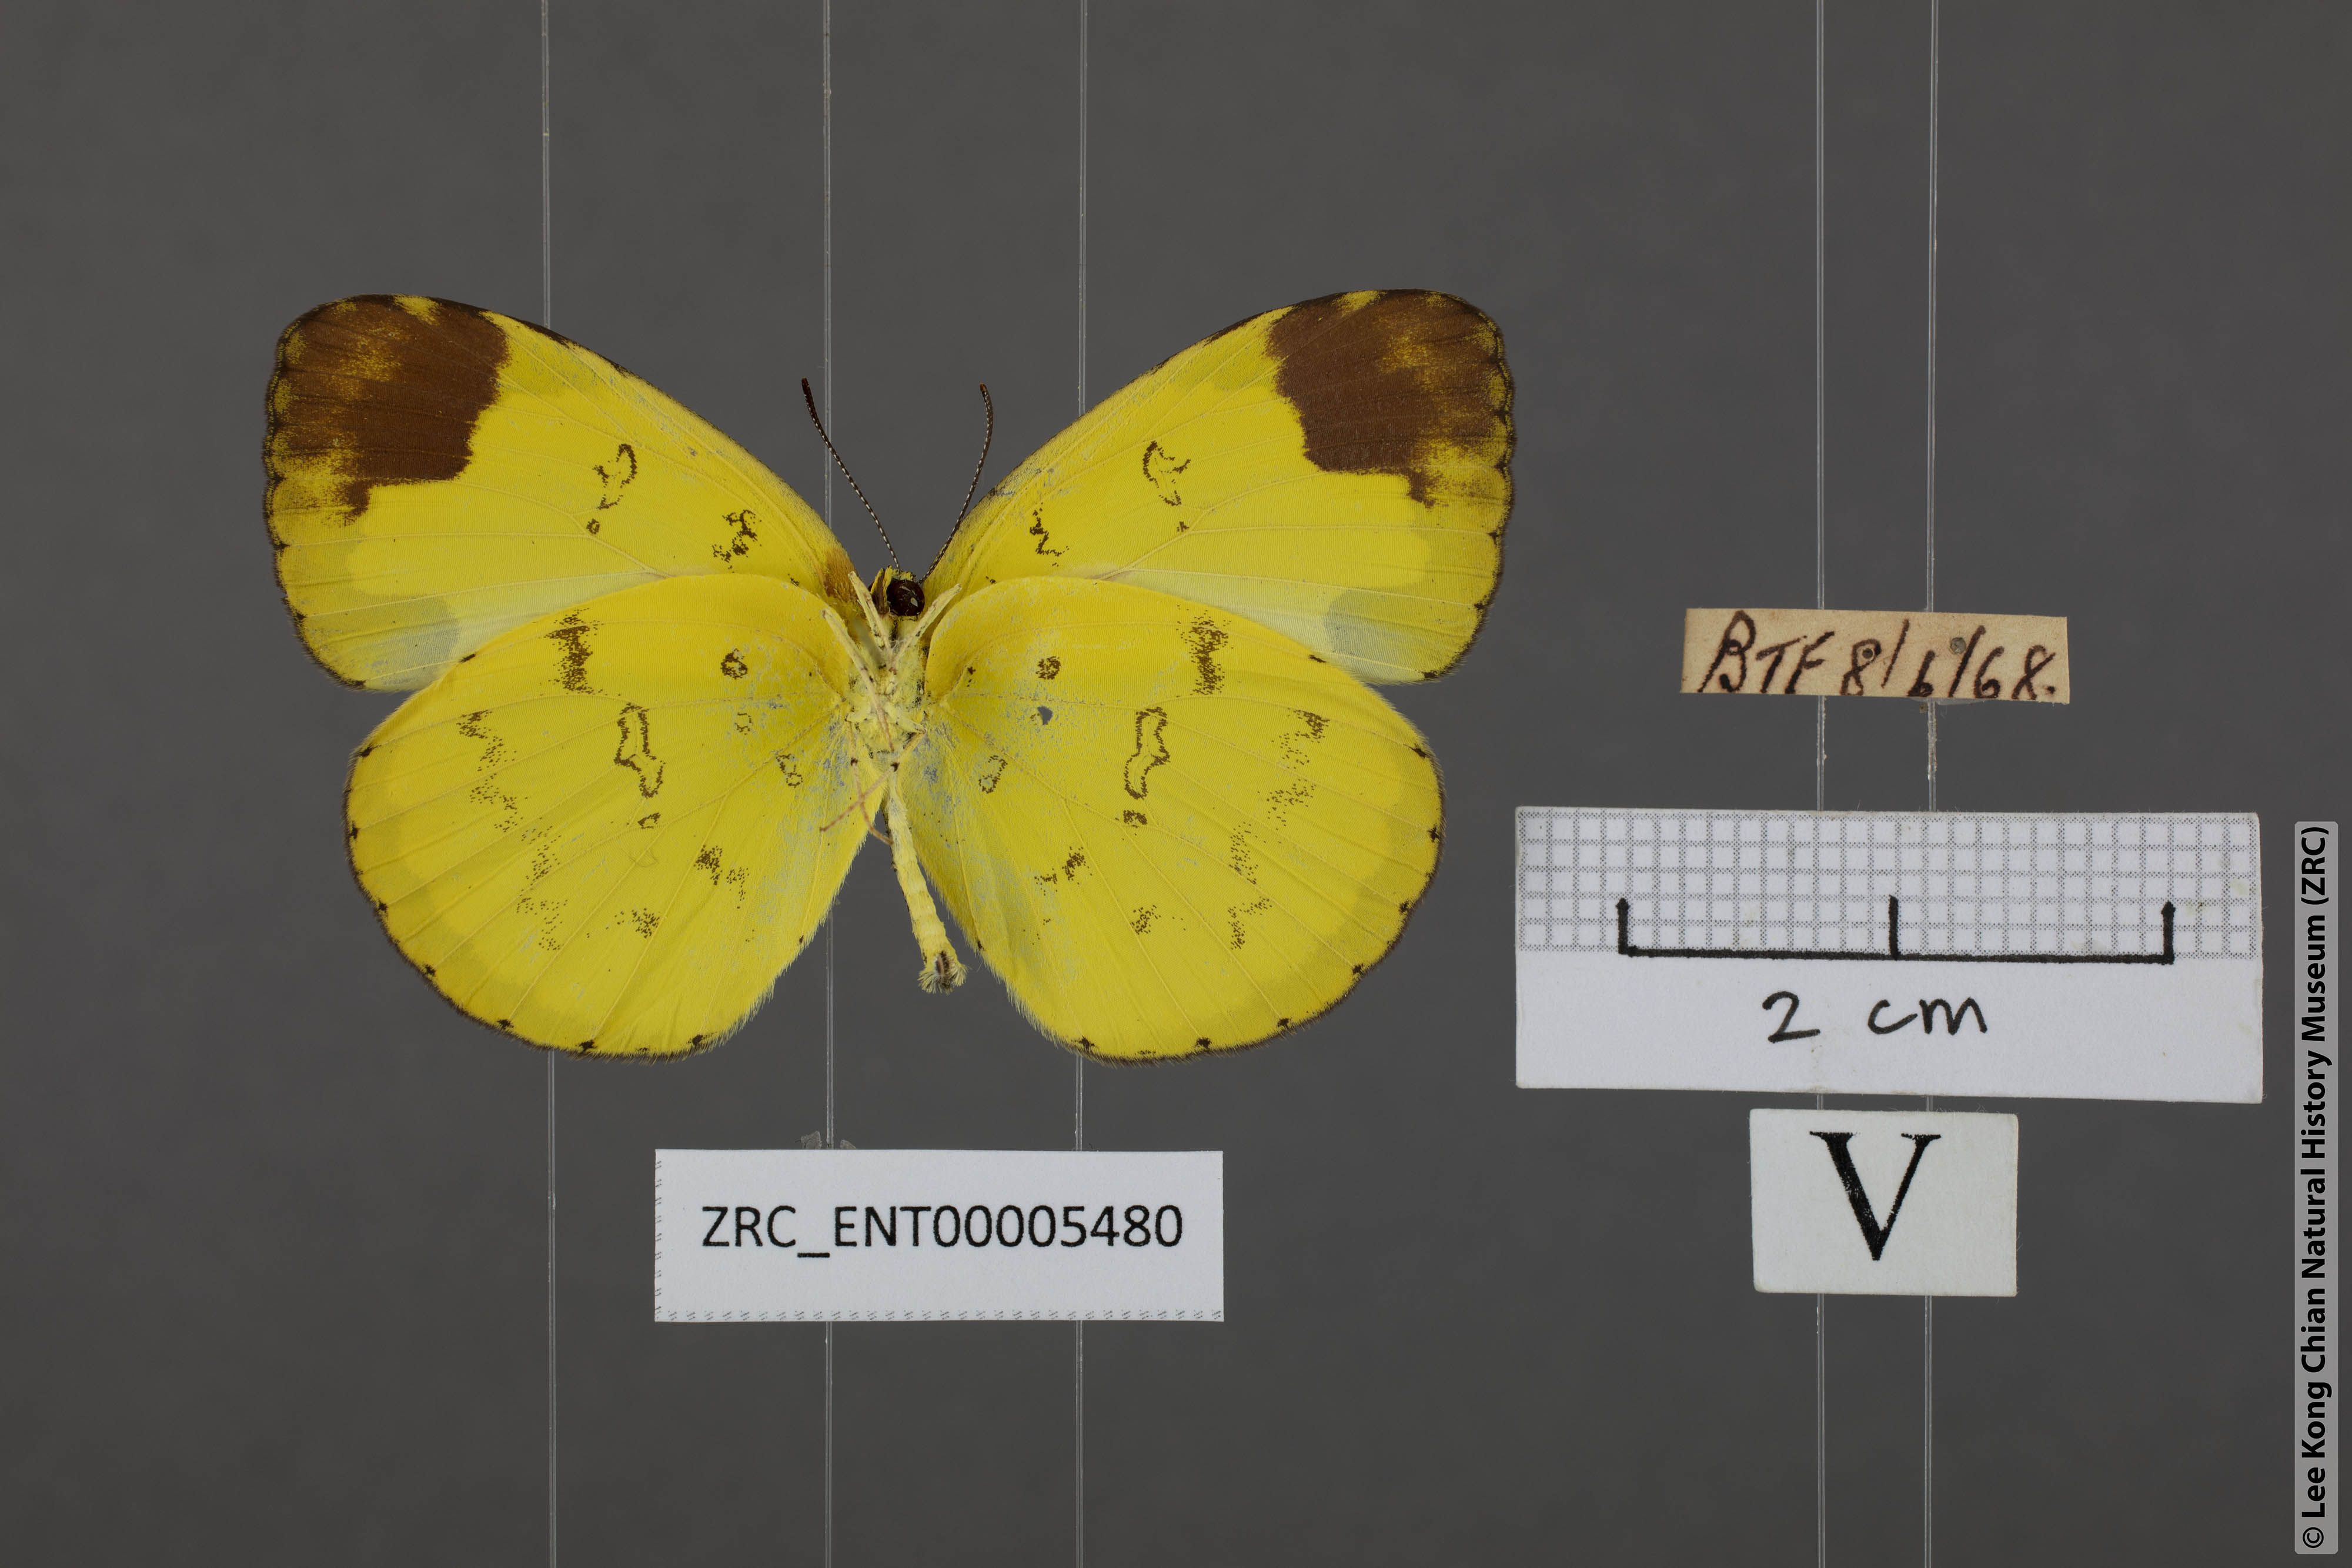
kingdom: Animalia
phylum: Arthropoda
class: Insecta
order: Lepidoptera
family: Pieridae
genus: Eurema
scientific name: Eurema simulatrix
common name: Hill grass yellow
